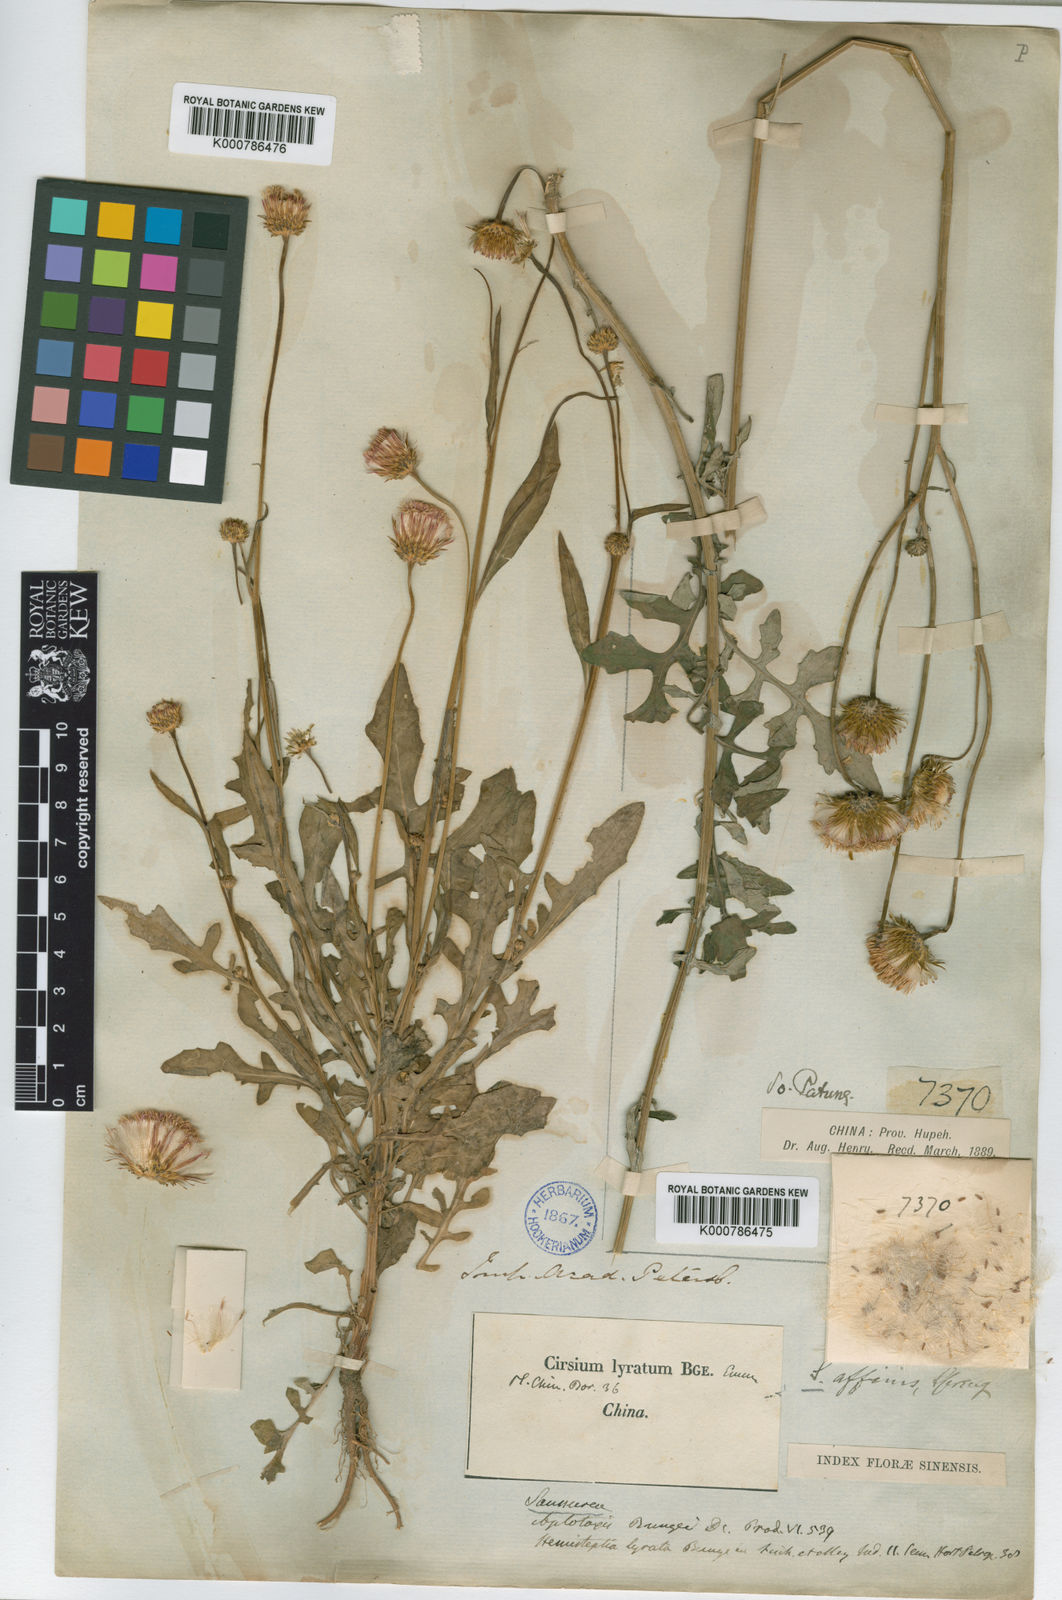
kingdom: Plantae
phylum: Tracheophyta
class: Magnoliopsida
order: Asterales
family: Asteraceae
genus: Saussurea
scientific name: Saussurea lyrata
